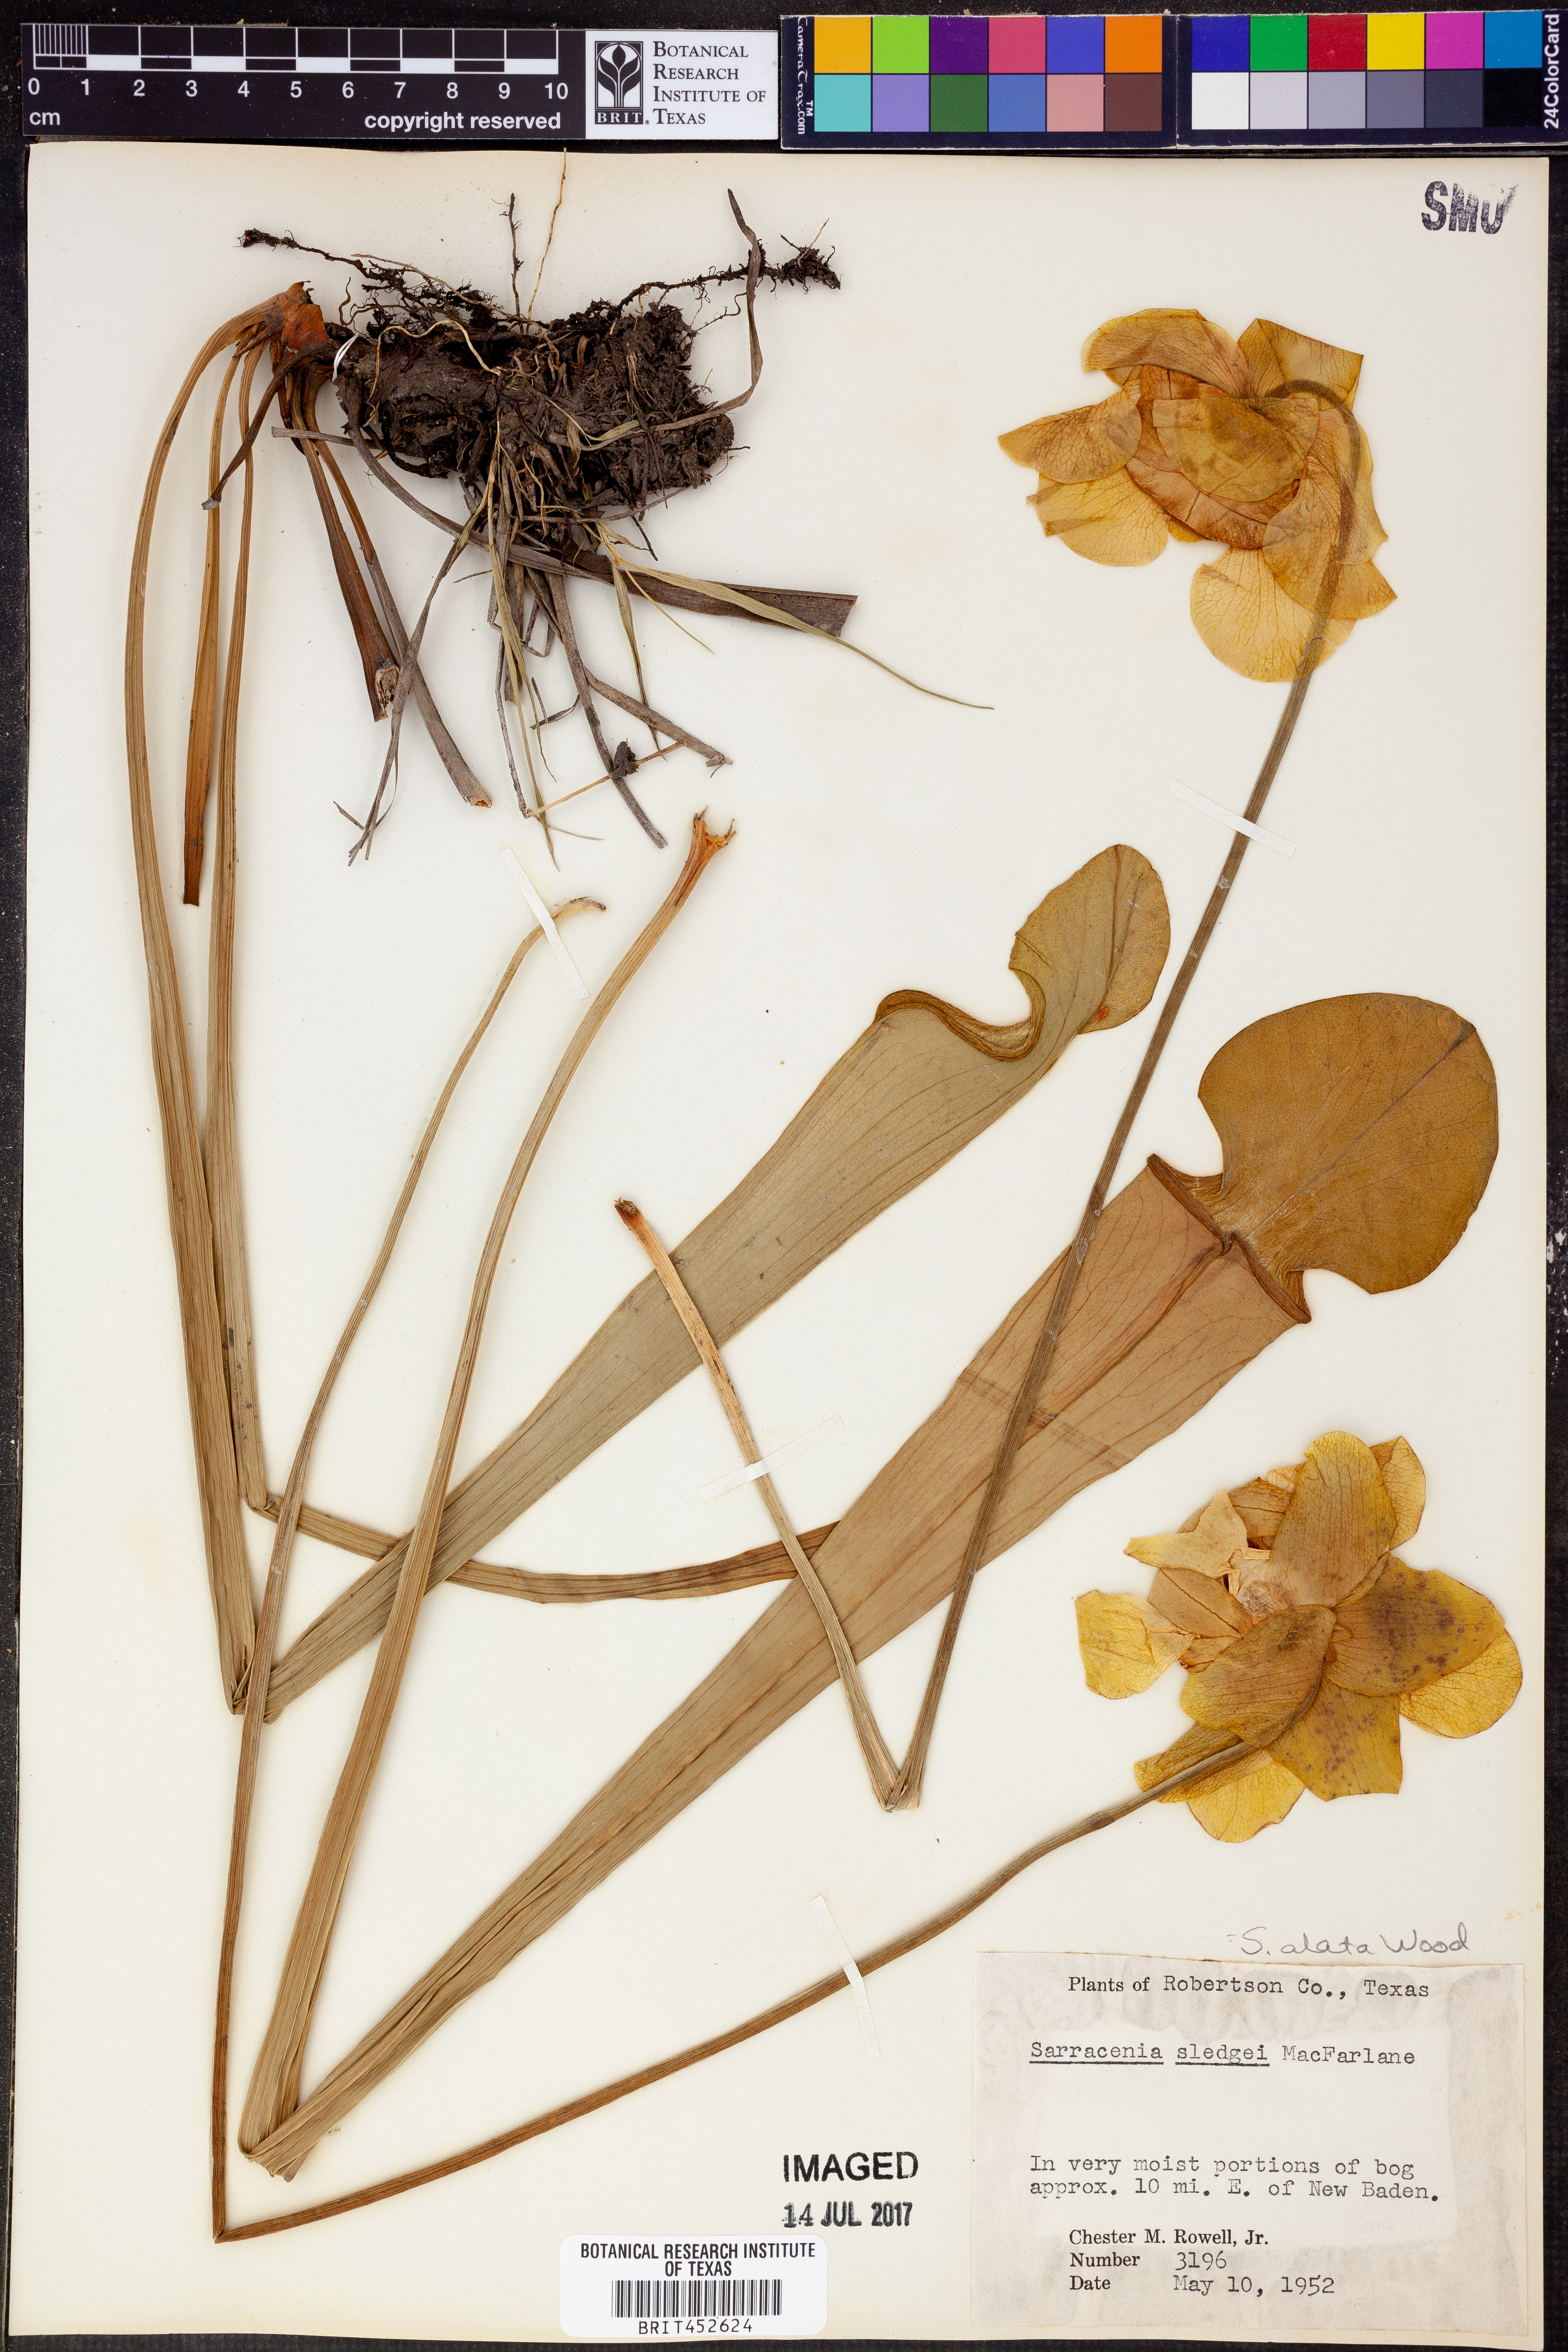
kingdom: Plantae
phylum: Tracheophyta
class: Magnoliopsida
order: Ericales
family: Sarraceniaceae
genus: Sarracenia
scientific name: Sarracenia alata
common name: Yellow trumpets
